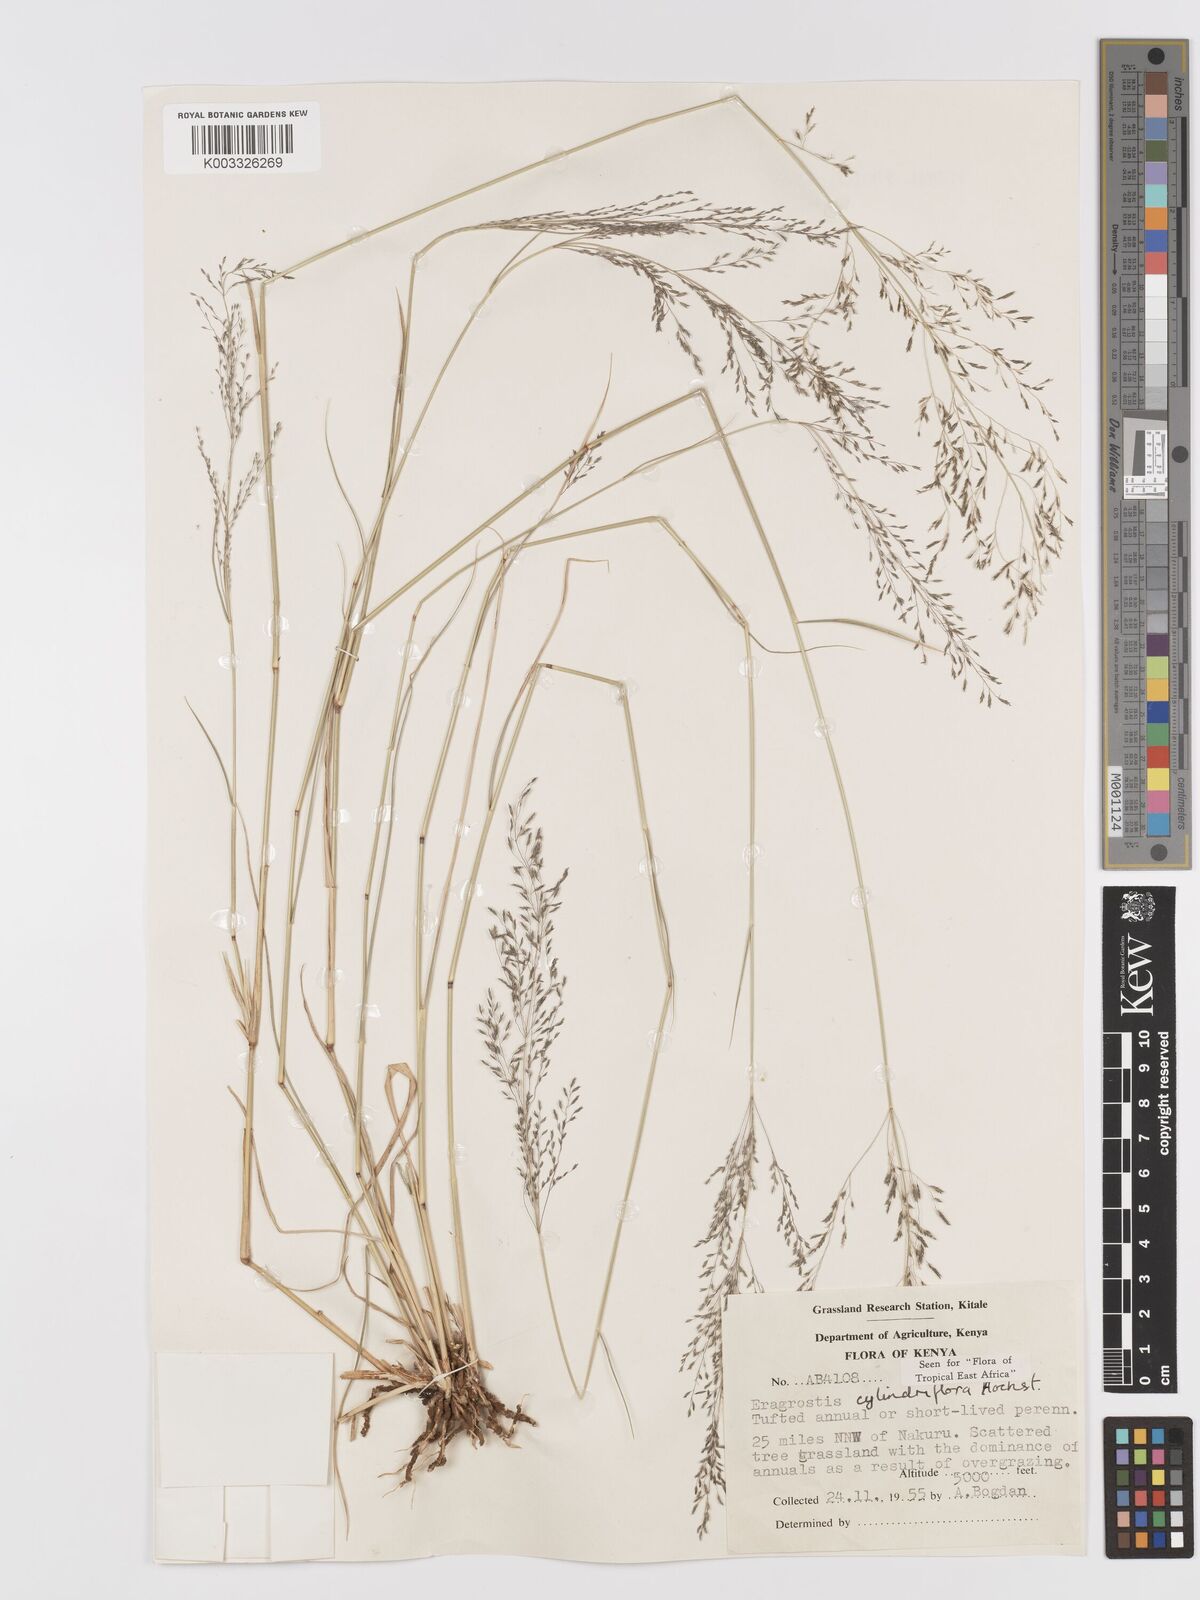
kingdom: Plantae
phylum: Tracheophyta
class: Liliopsida
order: Poales
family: Poaceae
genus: Eragrostis
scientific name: Eragrostis cylindriflora
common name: Cylinderflower lovegrass
